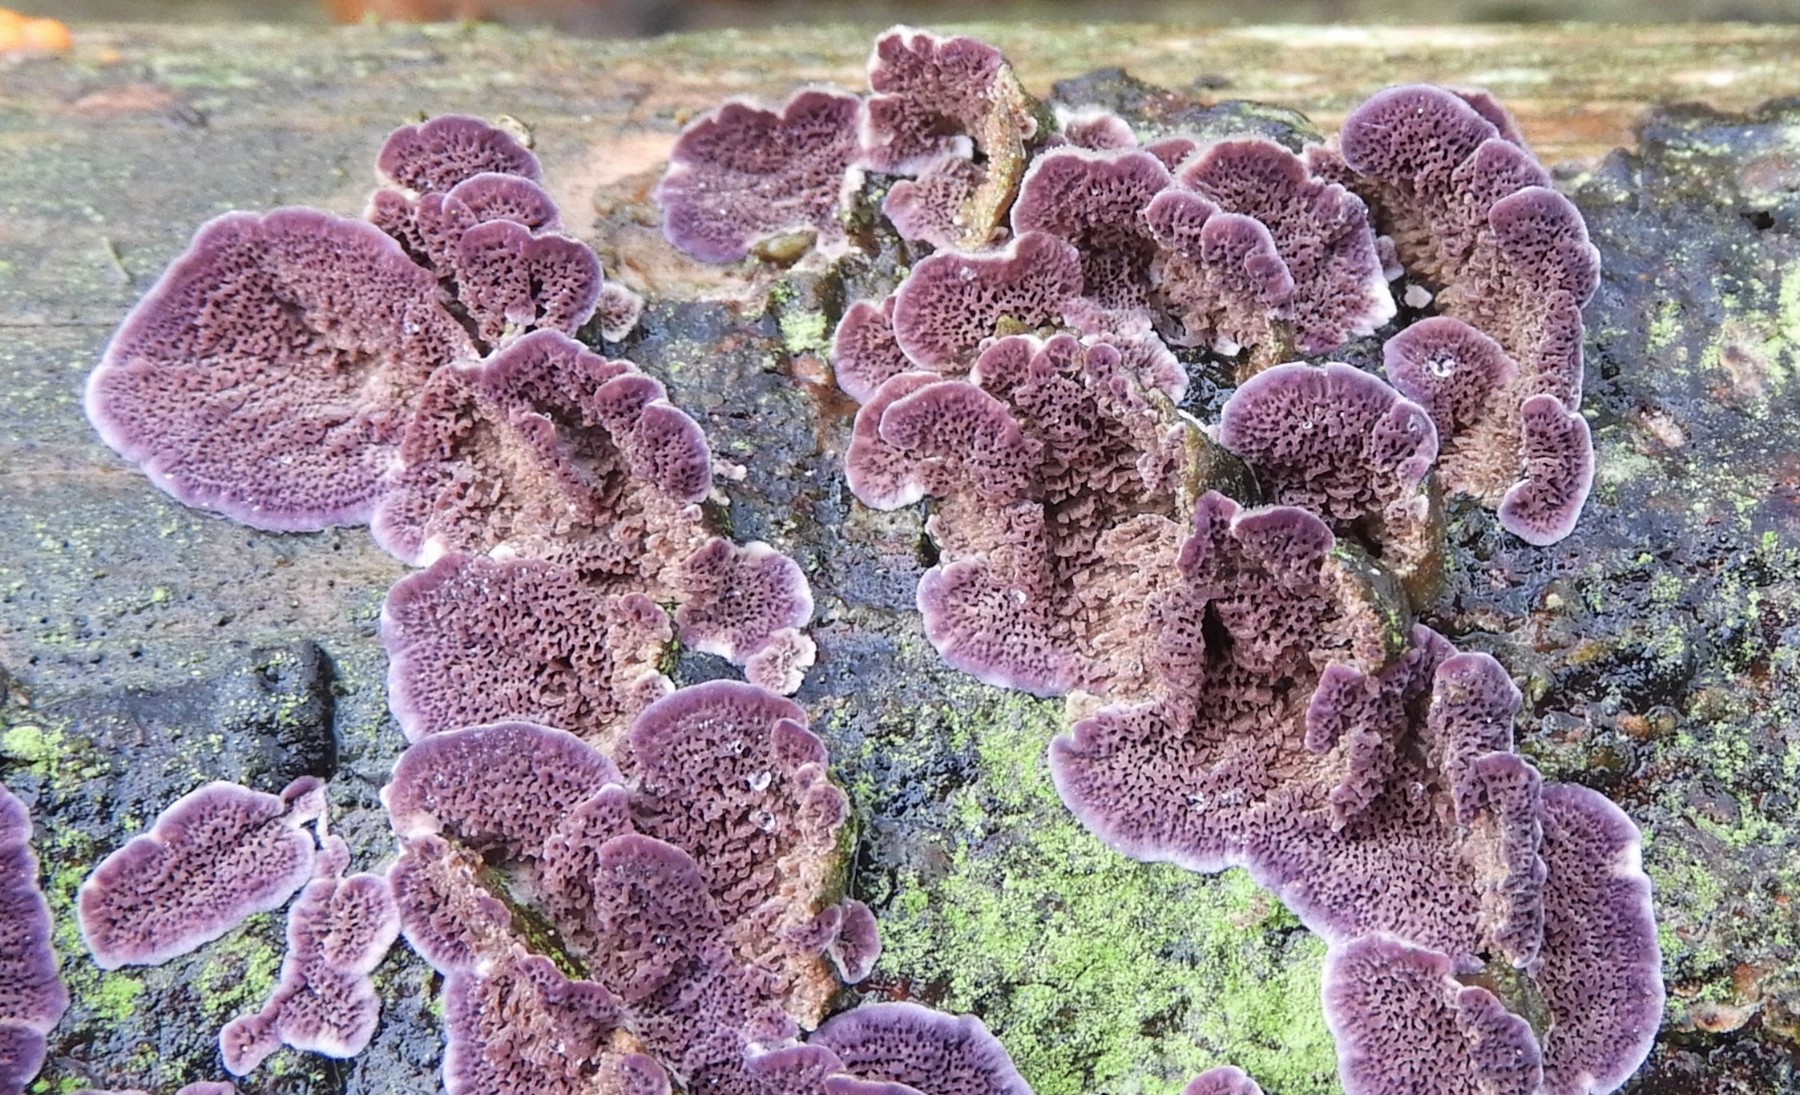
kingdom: Fungi
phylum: Basidiomycota
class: Agaricomycetes
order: Hymenochaetales
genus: Trichaptum
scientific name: Trichaptum abietinum
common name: almindelig violporesvamp
